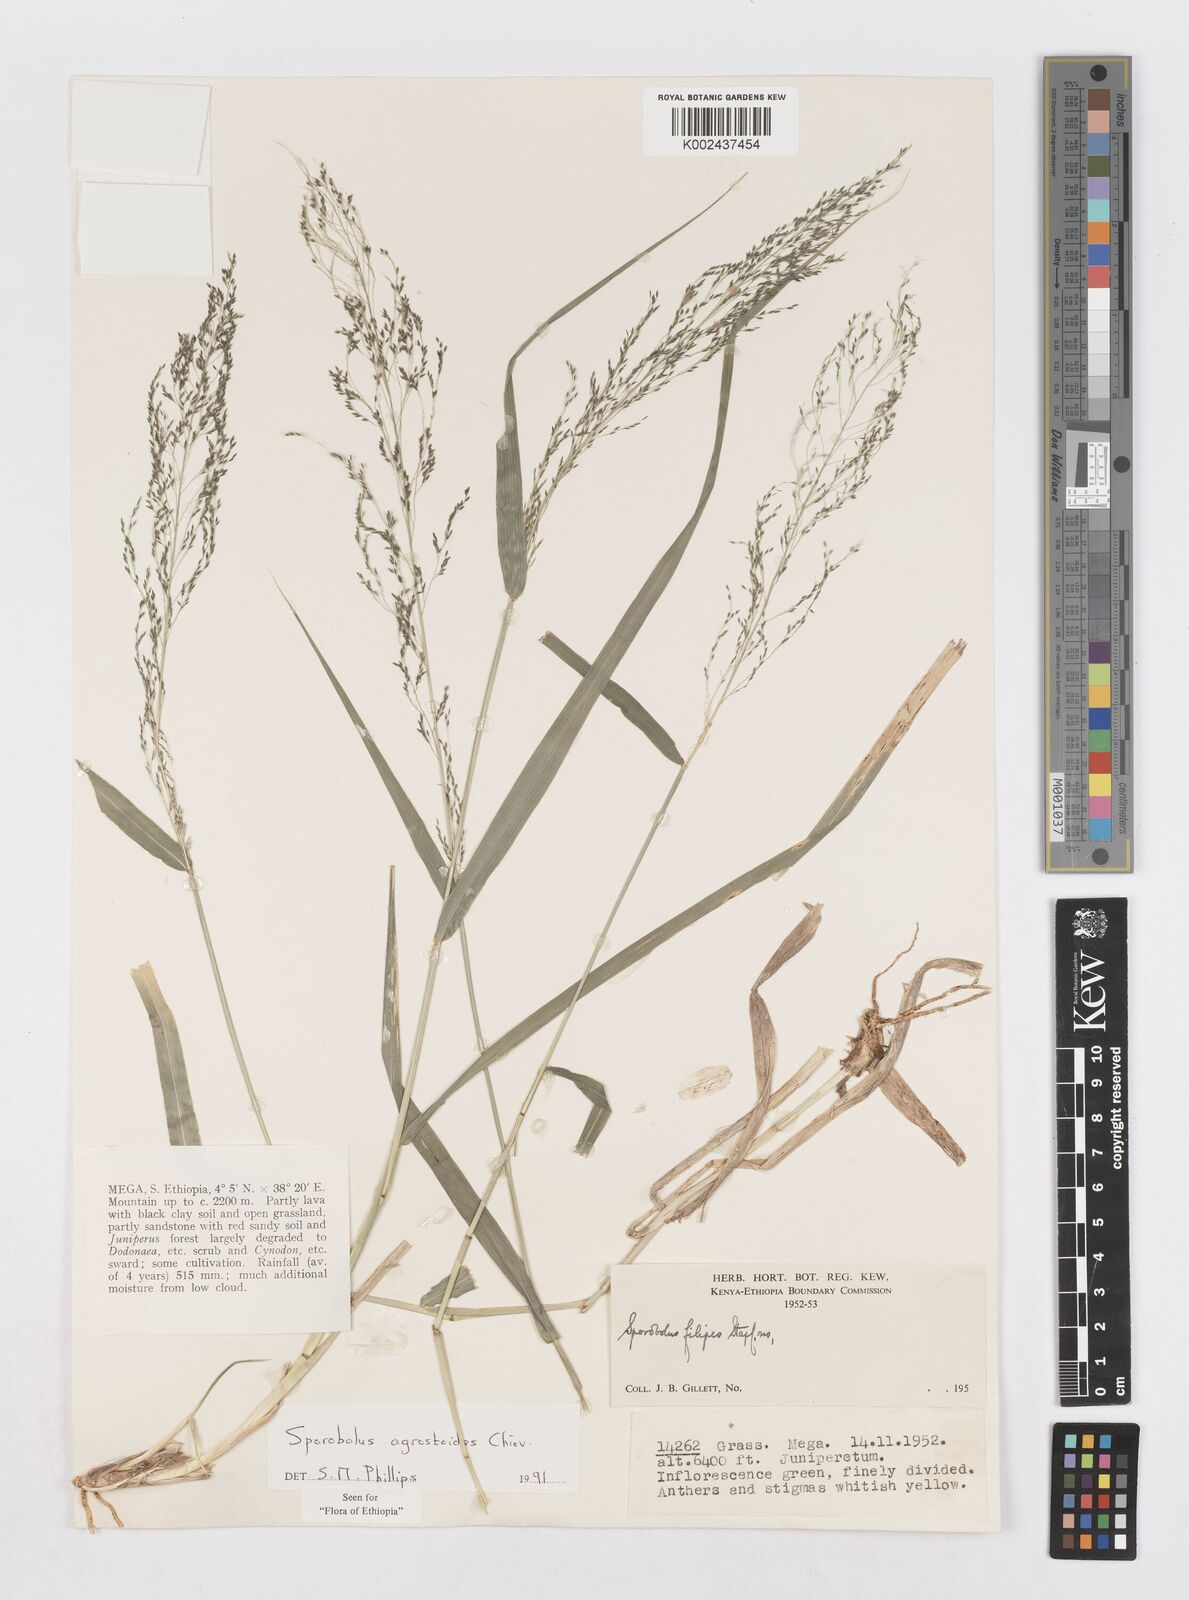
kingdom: Plantae
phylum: Tracheophyta
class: Liliopsida
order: Poales
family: Poaceae
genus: Sporobolus
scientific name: Sporobolus agrostoides
